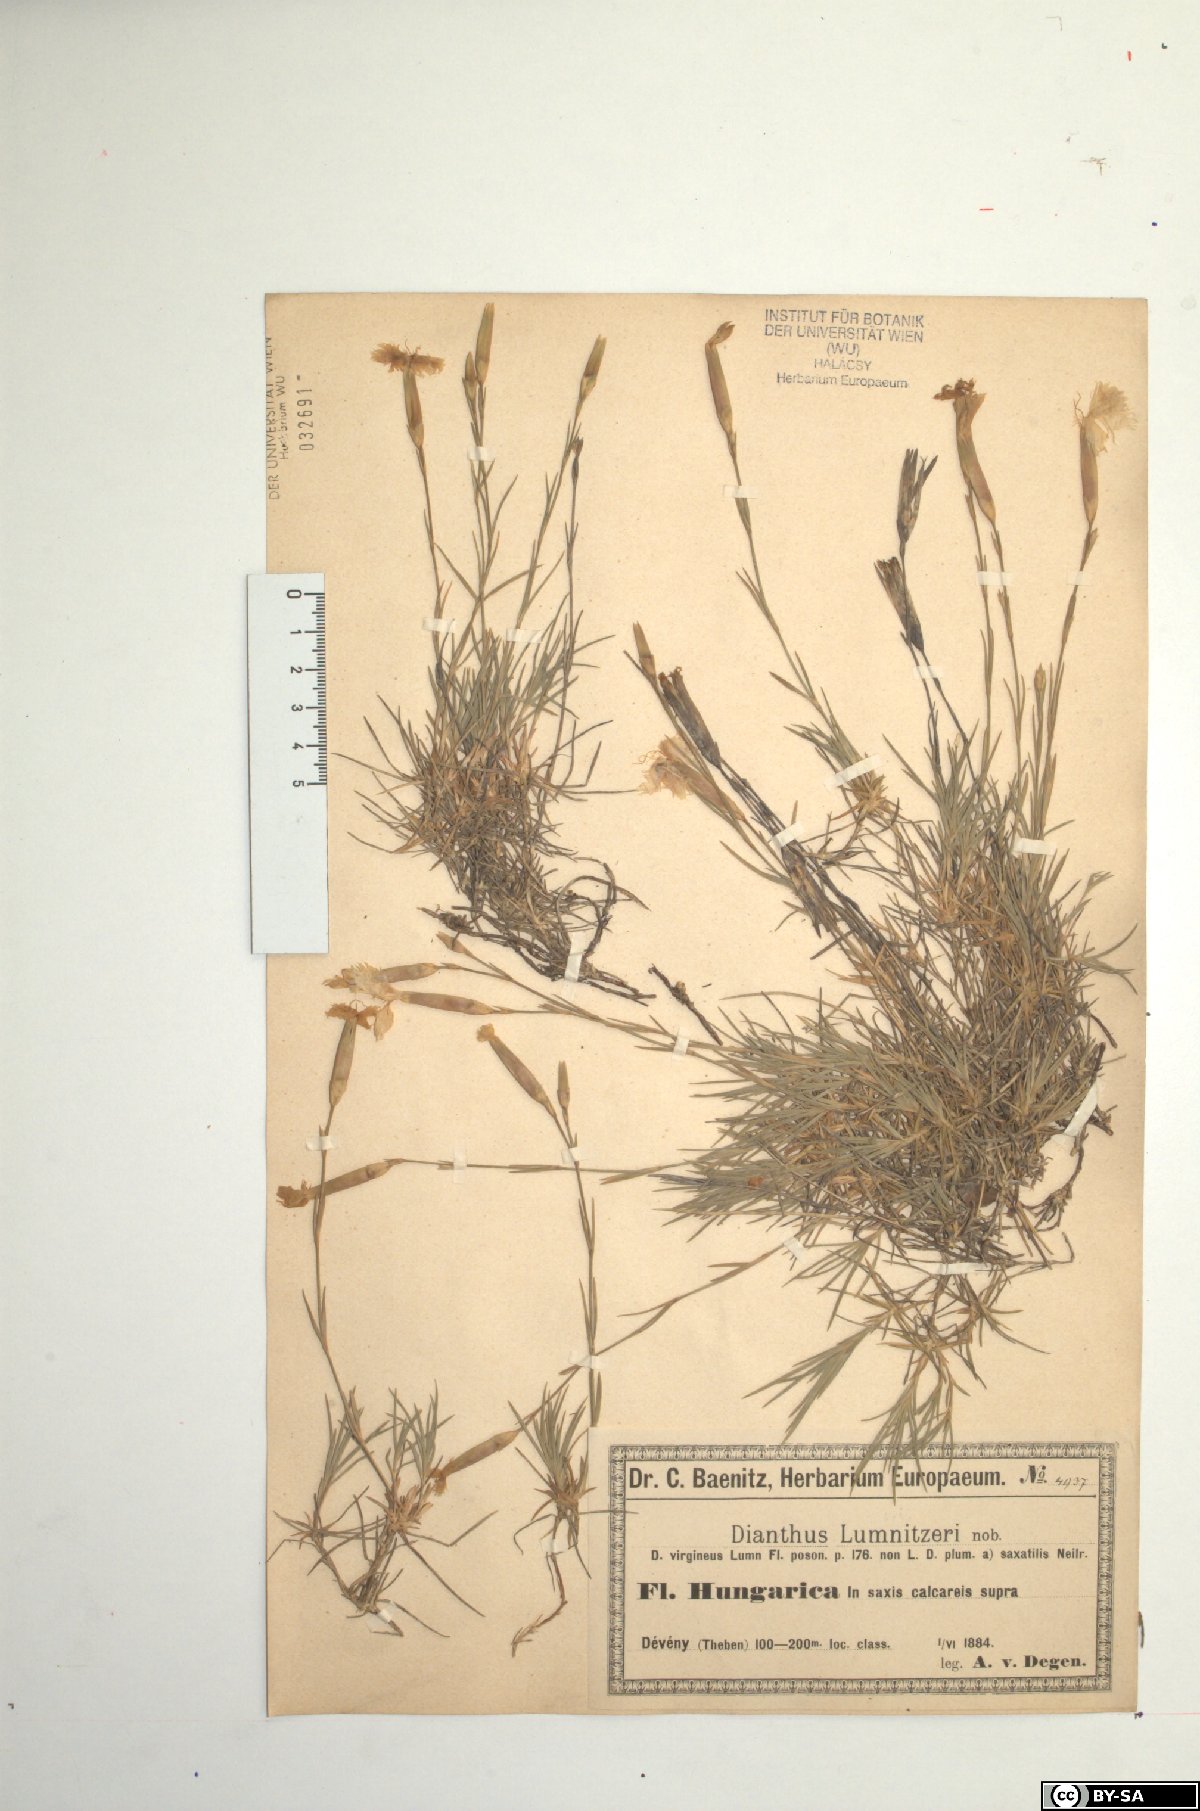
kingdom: Plantae
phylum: Tracheophyta
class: Magnoliopsida
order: Caryophyllales
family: Caryophyllaceae
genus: Dianthus
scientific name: Dianthus praecox
